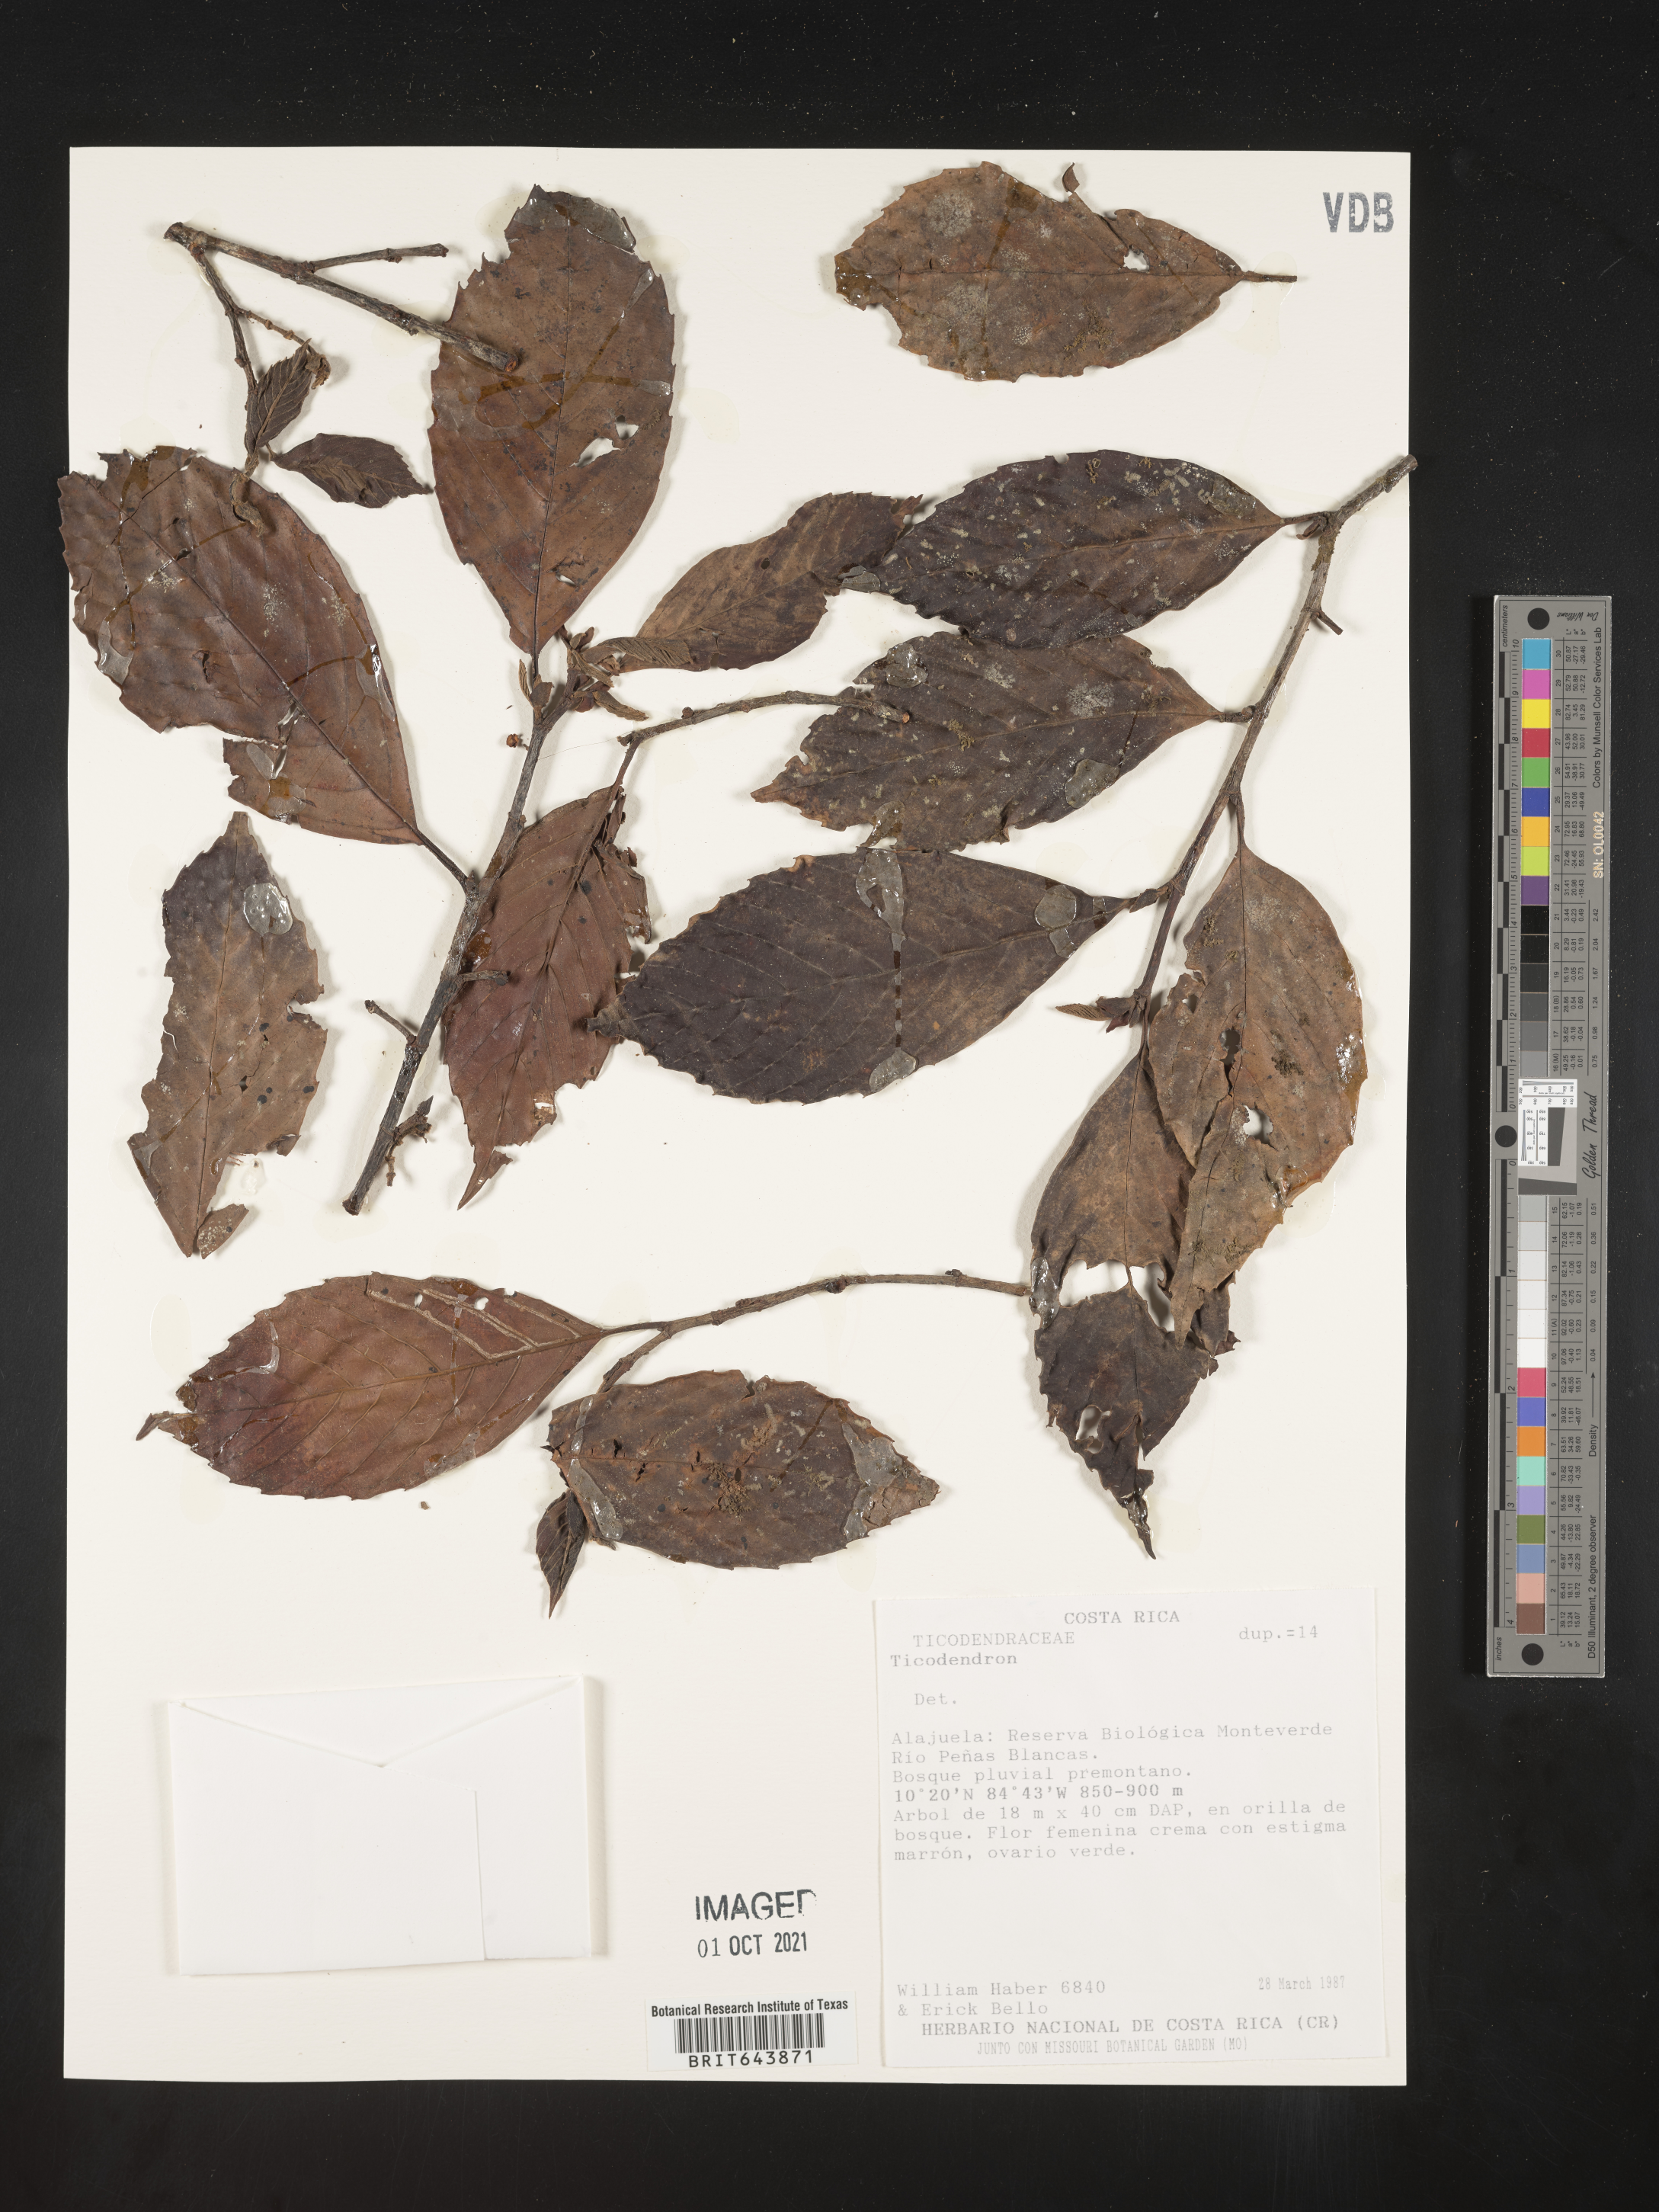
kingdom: Plantae
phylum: Tracheophyta
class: Magnoliopsida
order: Fagales
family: Ticodendraceae
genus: Ticodendron
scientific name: Ticodendron
